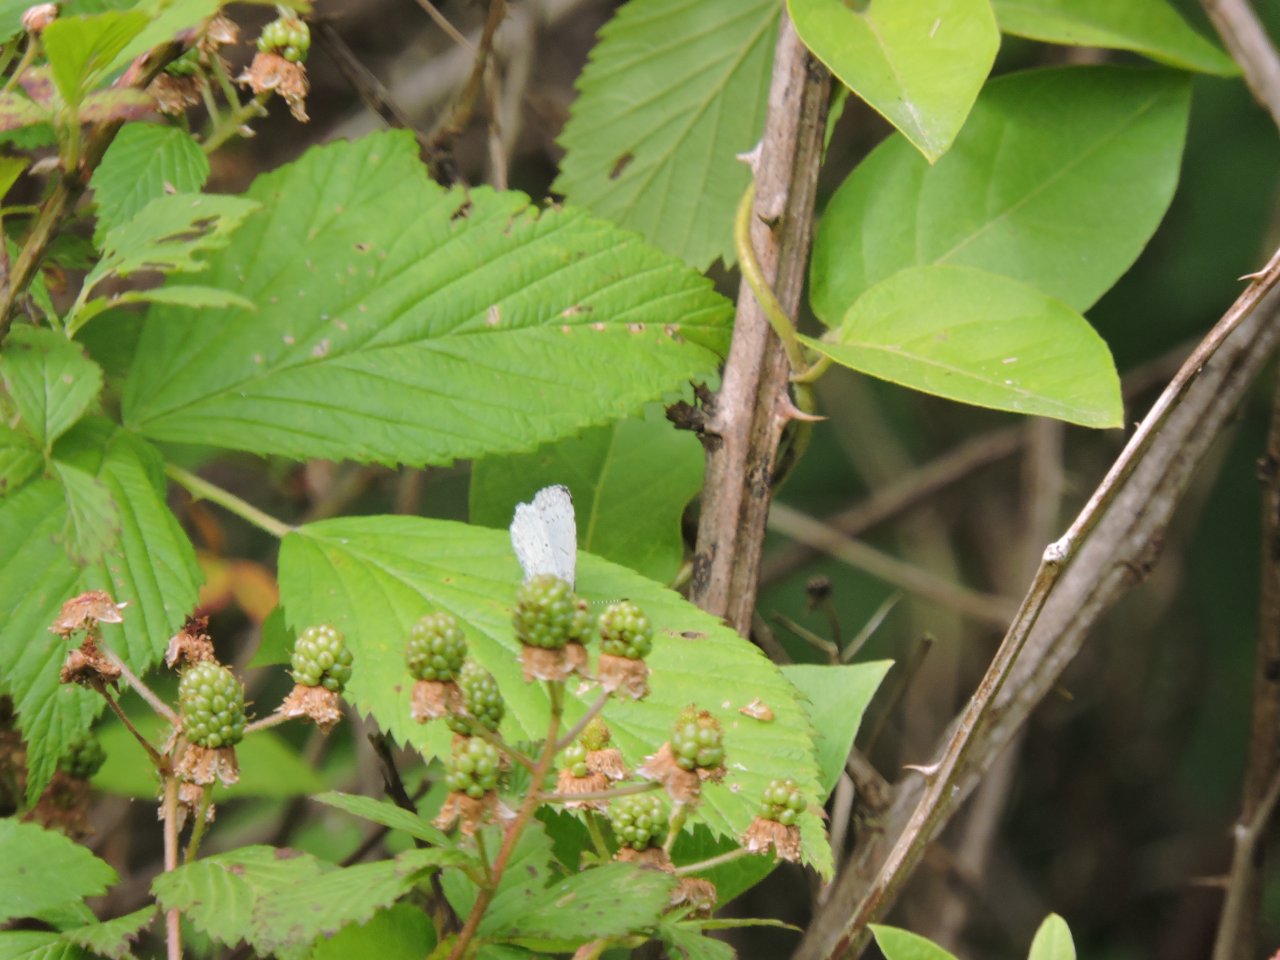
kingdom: Animalia
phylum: Arthropoda
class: Insecta
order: Lepidoptera
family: Lycaenidae
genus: Cyaniris
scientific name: Cyaniris neglecta
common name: Summer Azure
